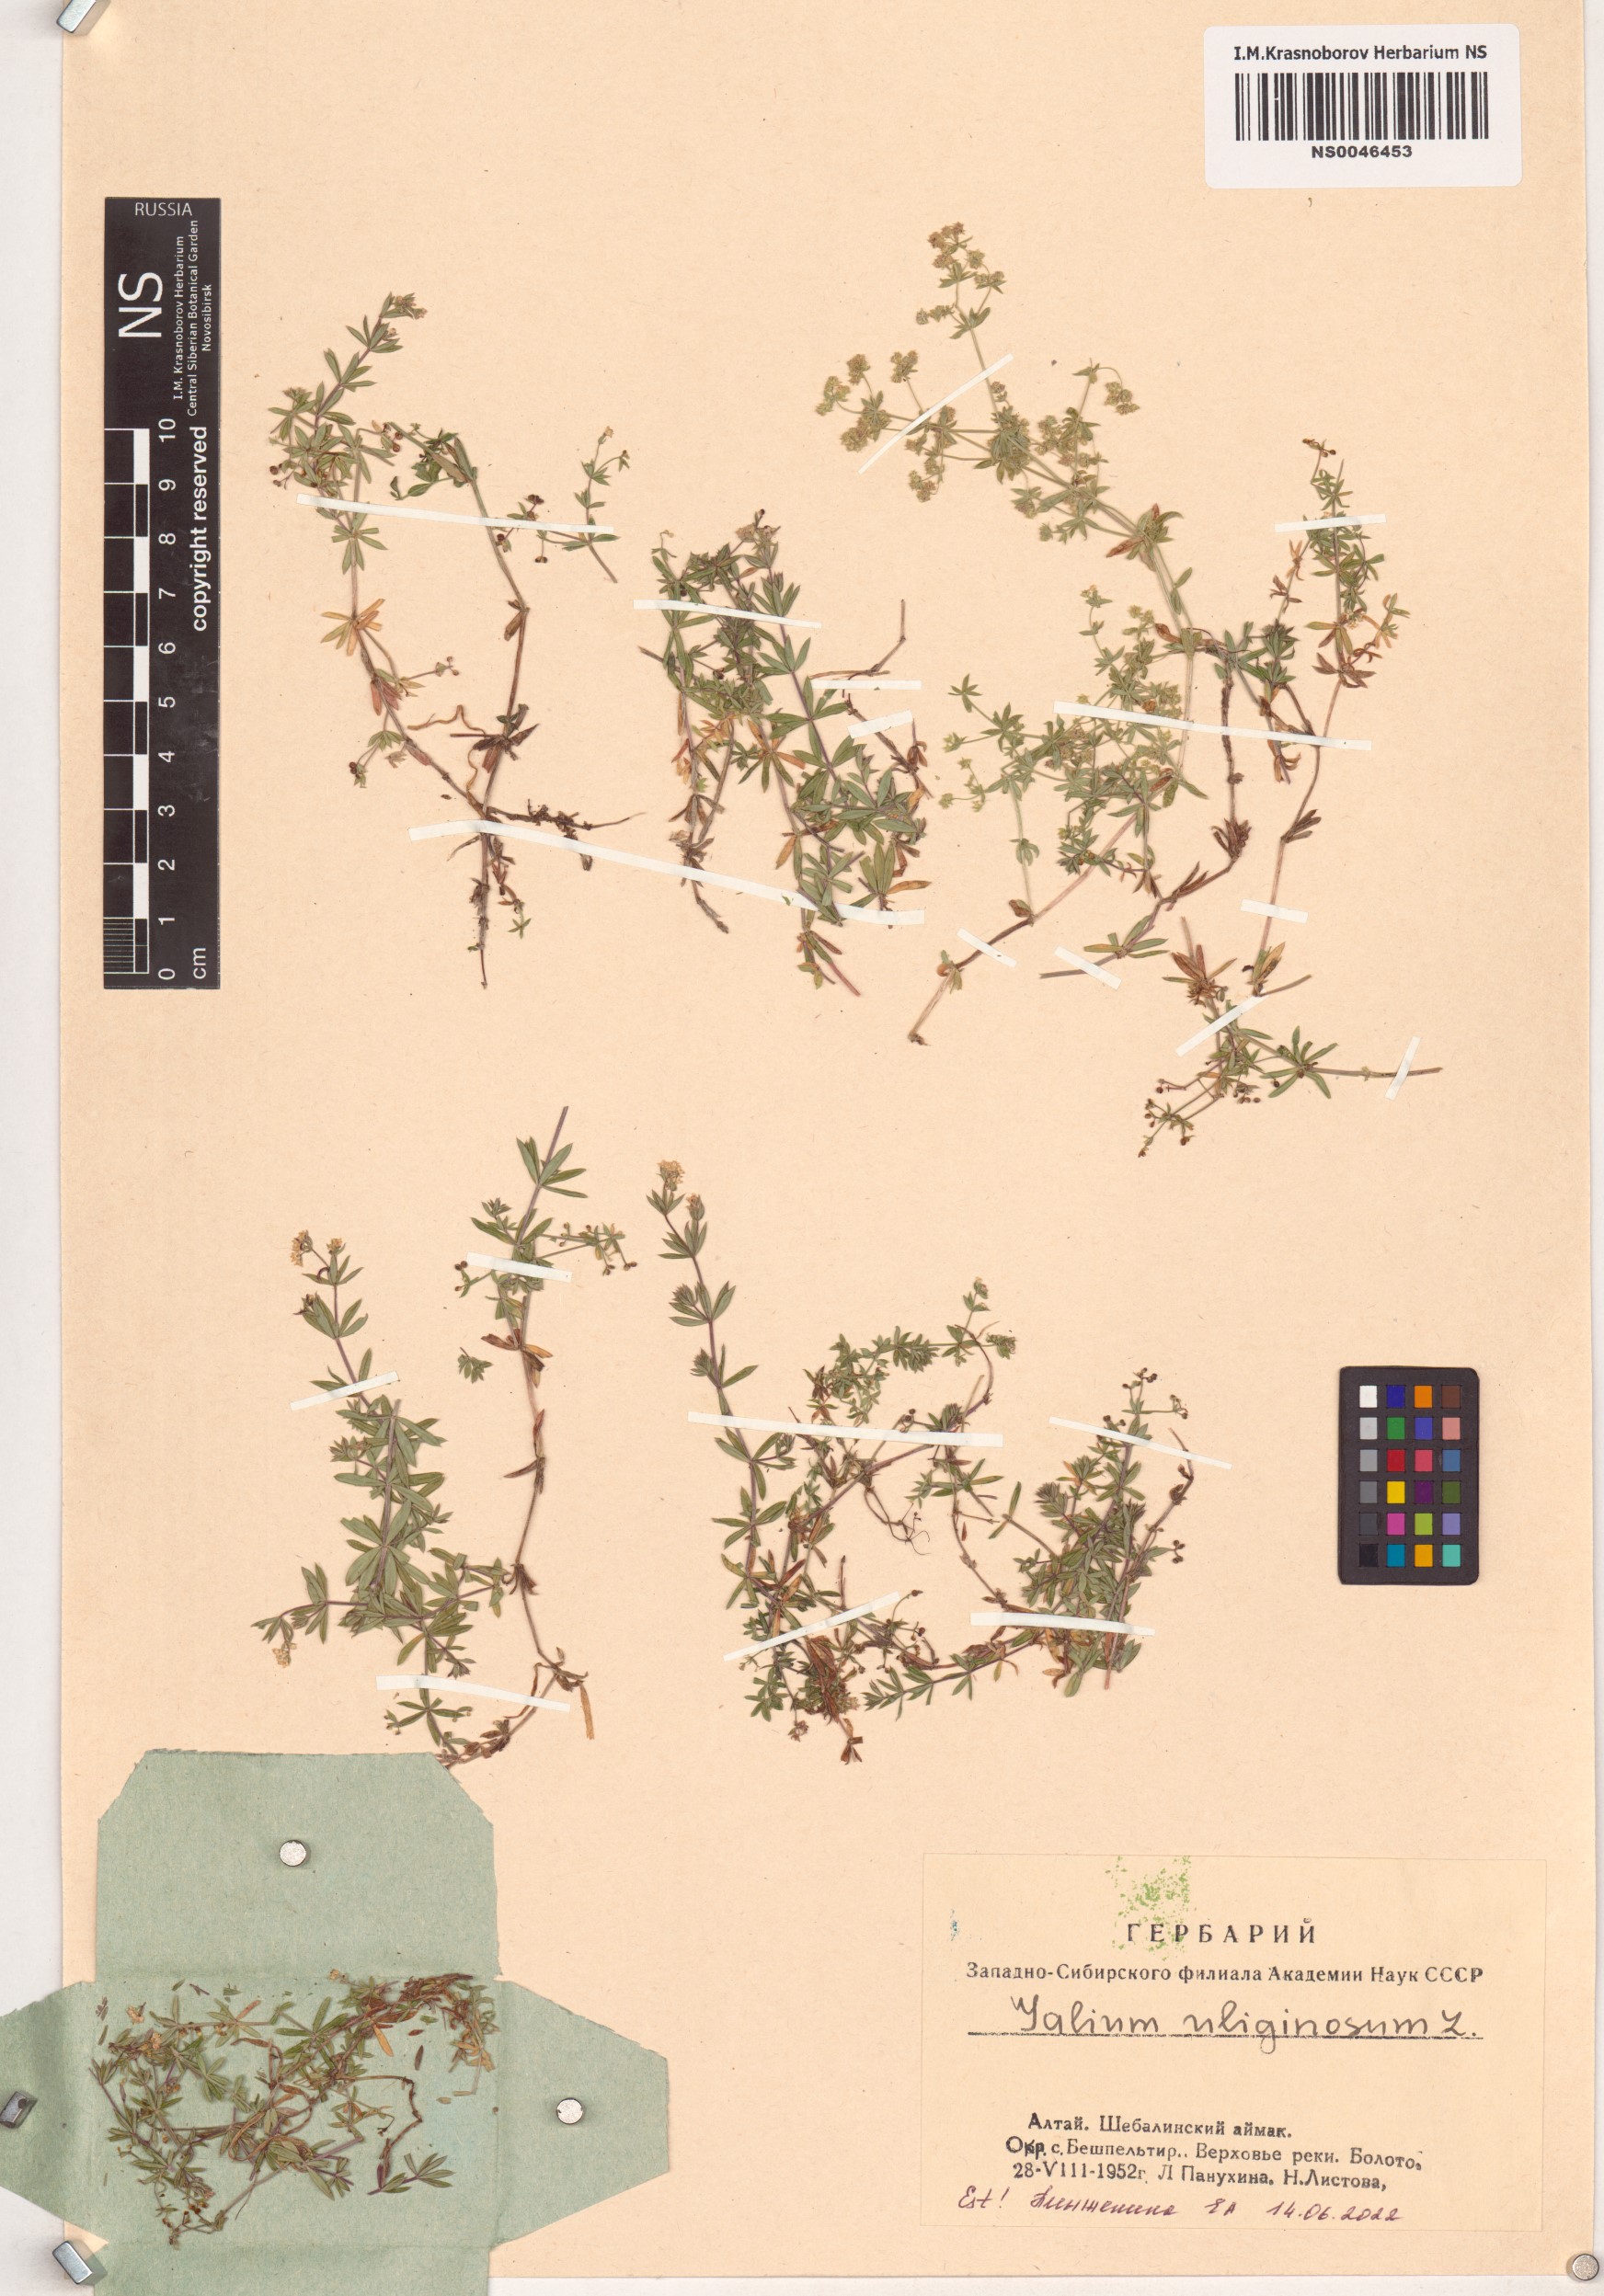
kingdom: Plantae
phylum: Tracheophyta
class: Magnoliopsida
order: Gentianales
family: Rubiaceae
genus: Galium
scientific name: Galium uliginosum
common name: Fen bedstraw
